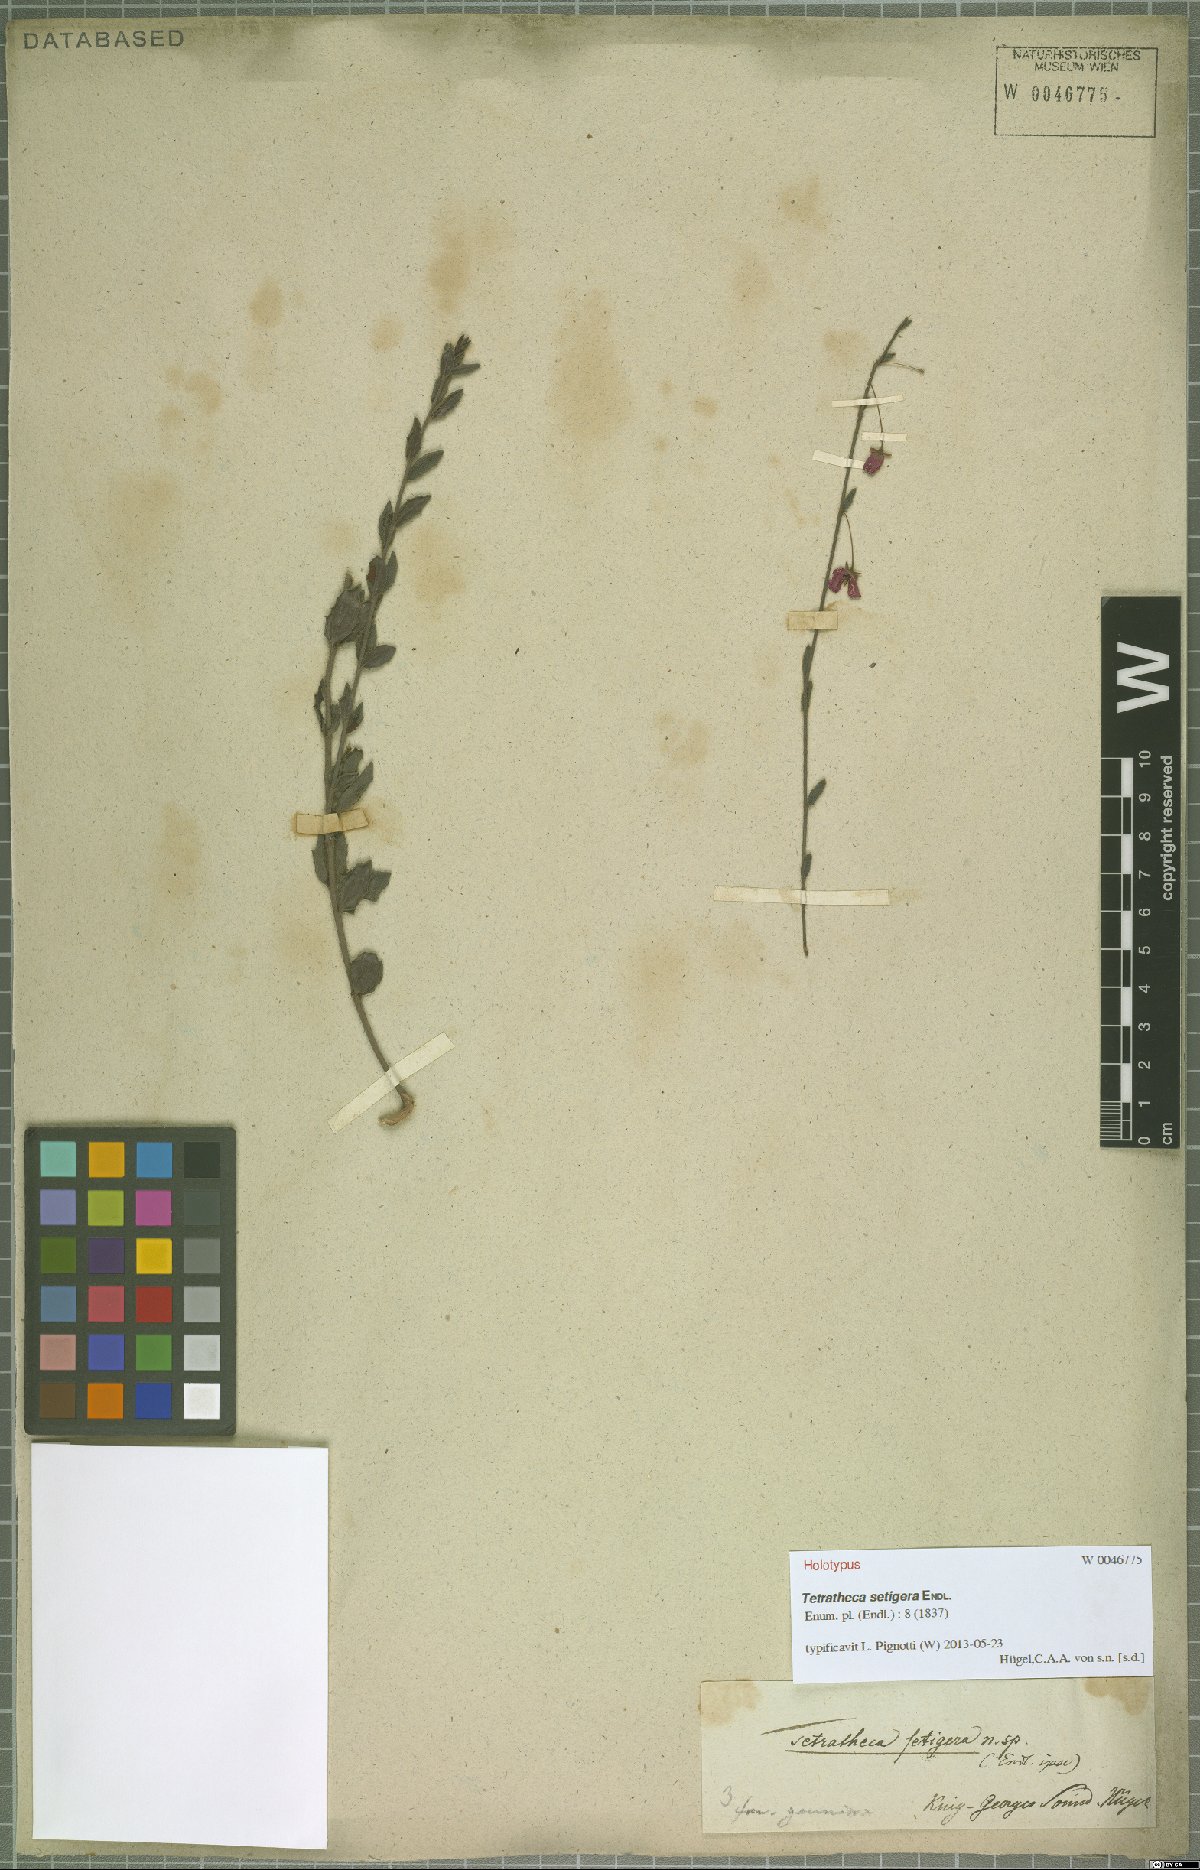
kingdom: Plantae
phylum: Tracheophyta
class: Magnoliopsida
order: Oxalidales
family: Elaeocarpaceae
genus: Tetratheca
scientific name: Tetratheca setigera
